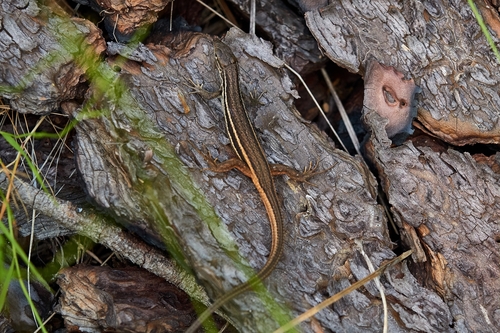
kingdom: Animalia
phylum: Chordata
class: Squamata
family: Lacertidae
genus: Psammodromus
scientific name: Psammodromus algirus
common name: Algerian psammodromus
